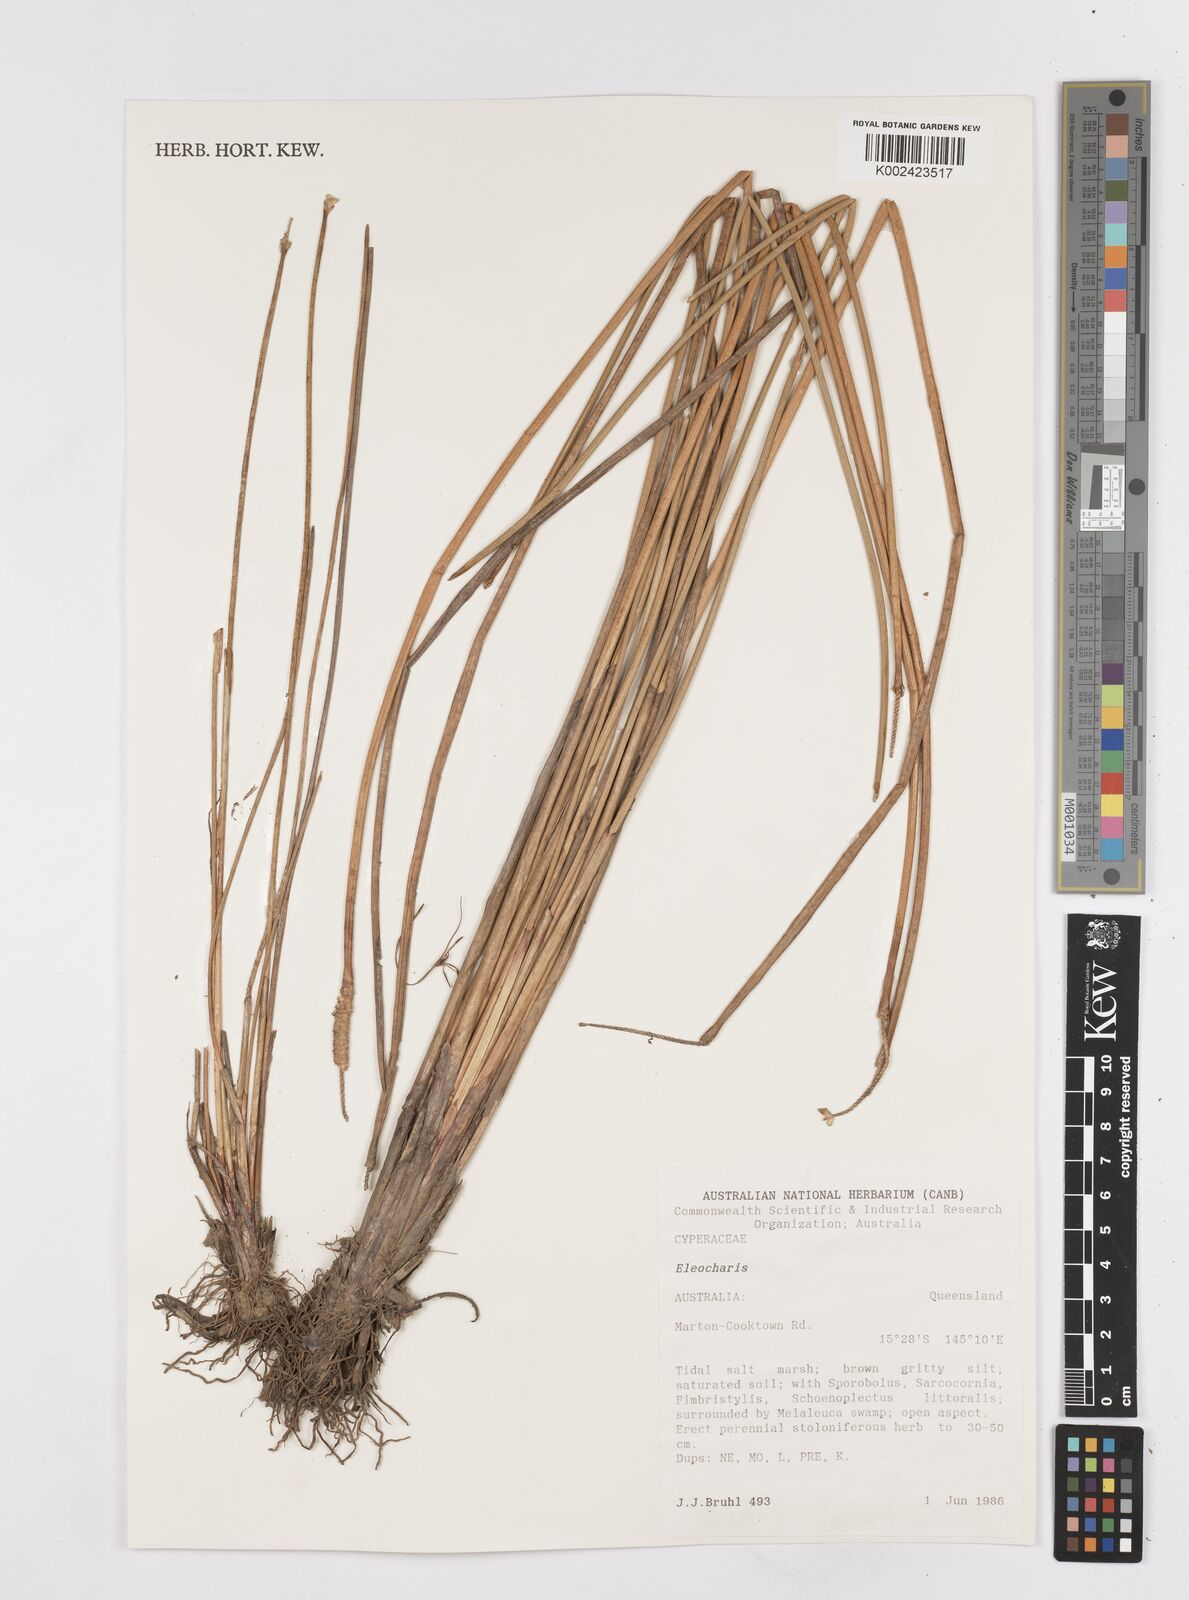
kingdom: Plantae
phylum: Tracheophyta
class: Liliopsida
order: Poales
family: Cyperaceae
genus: Eleocharis
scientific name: Eleocharis
